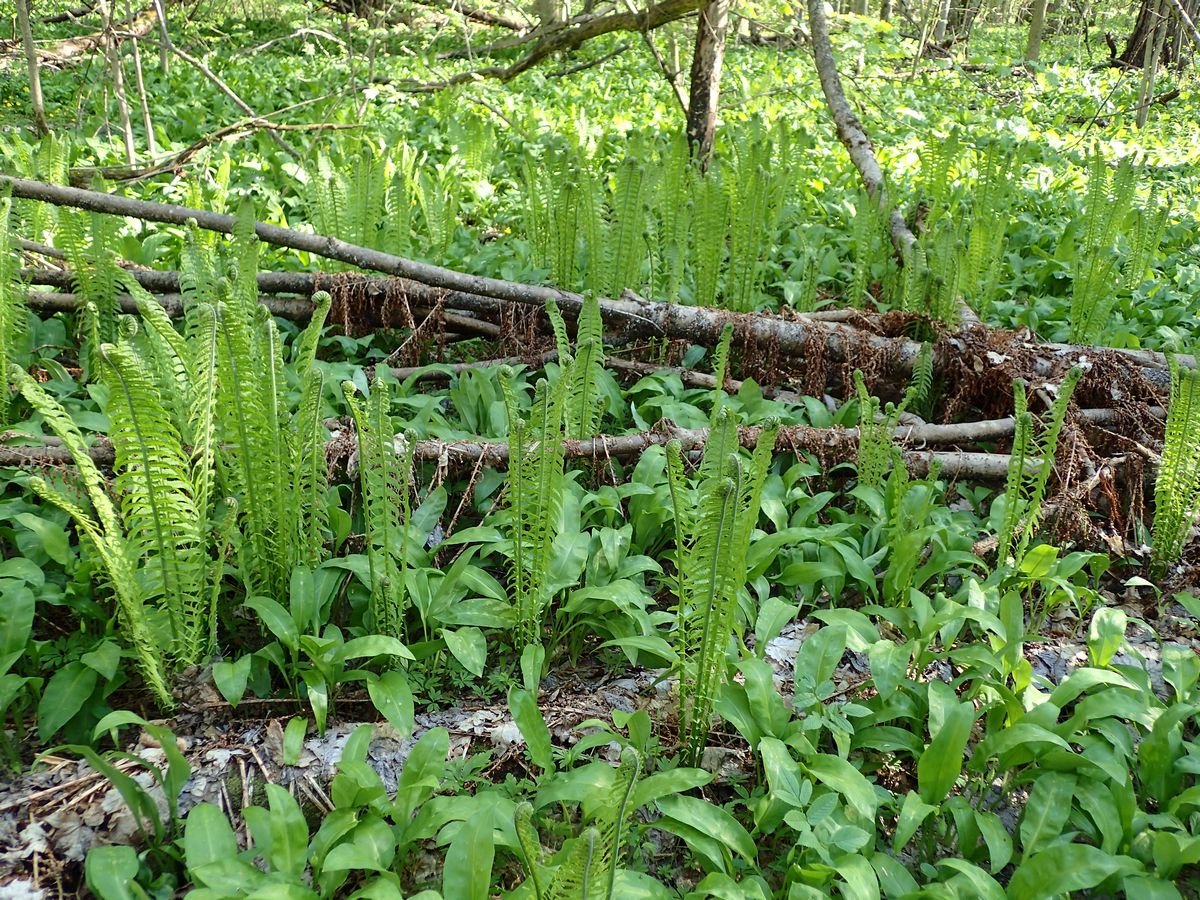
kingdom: Plantae
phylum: Tracheophyta
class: Liliopsida
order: Asparagales
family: Amaryllidaceae
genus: Allium
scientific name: Allium microdictyon
